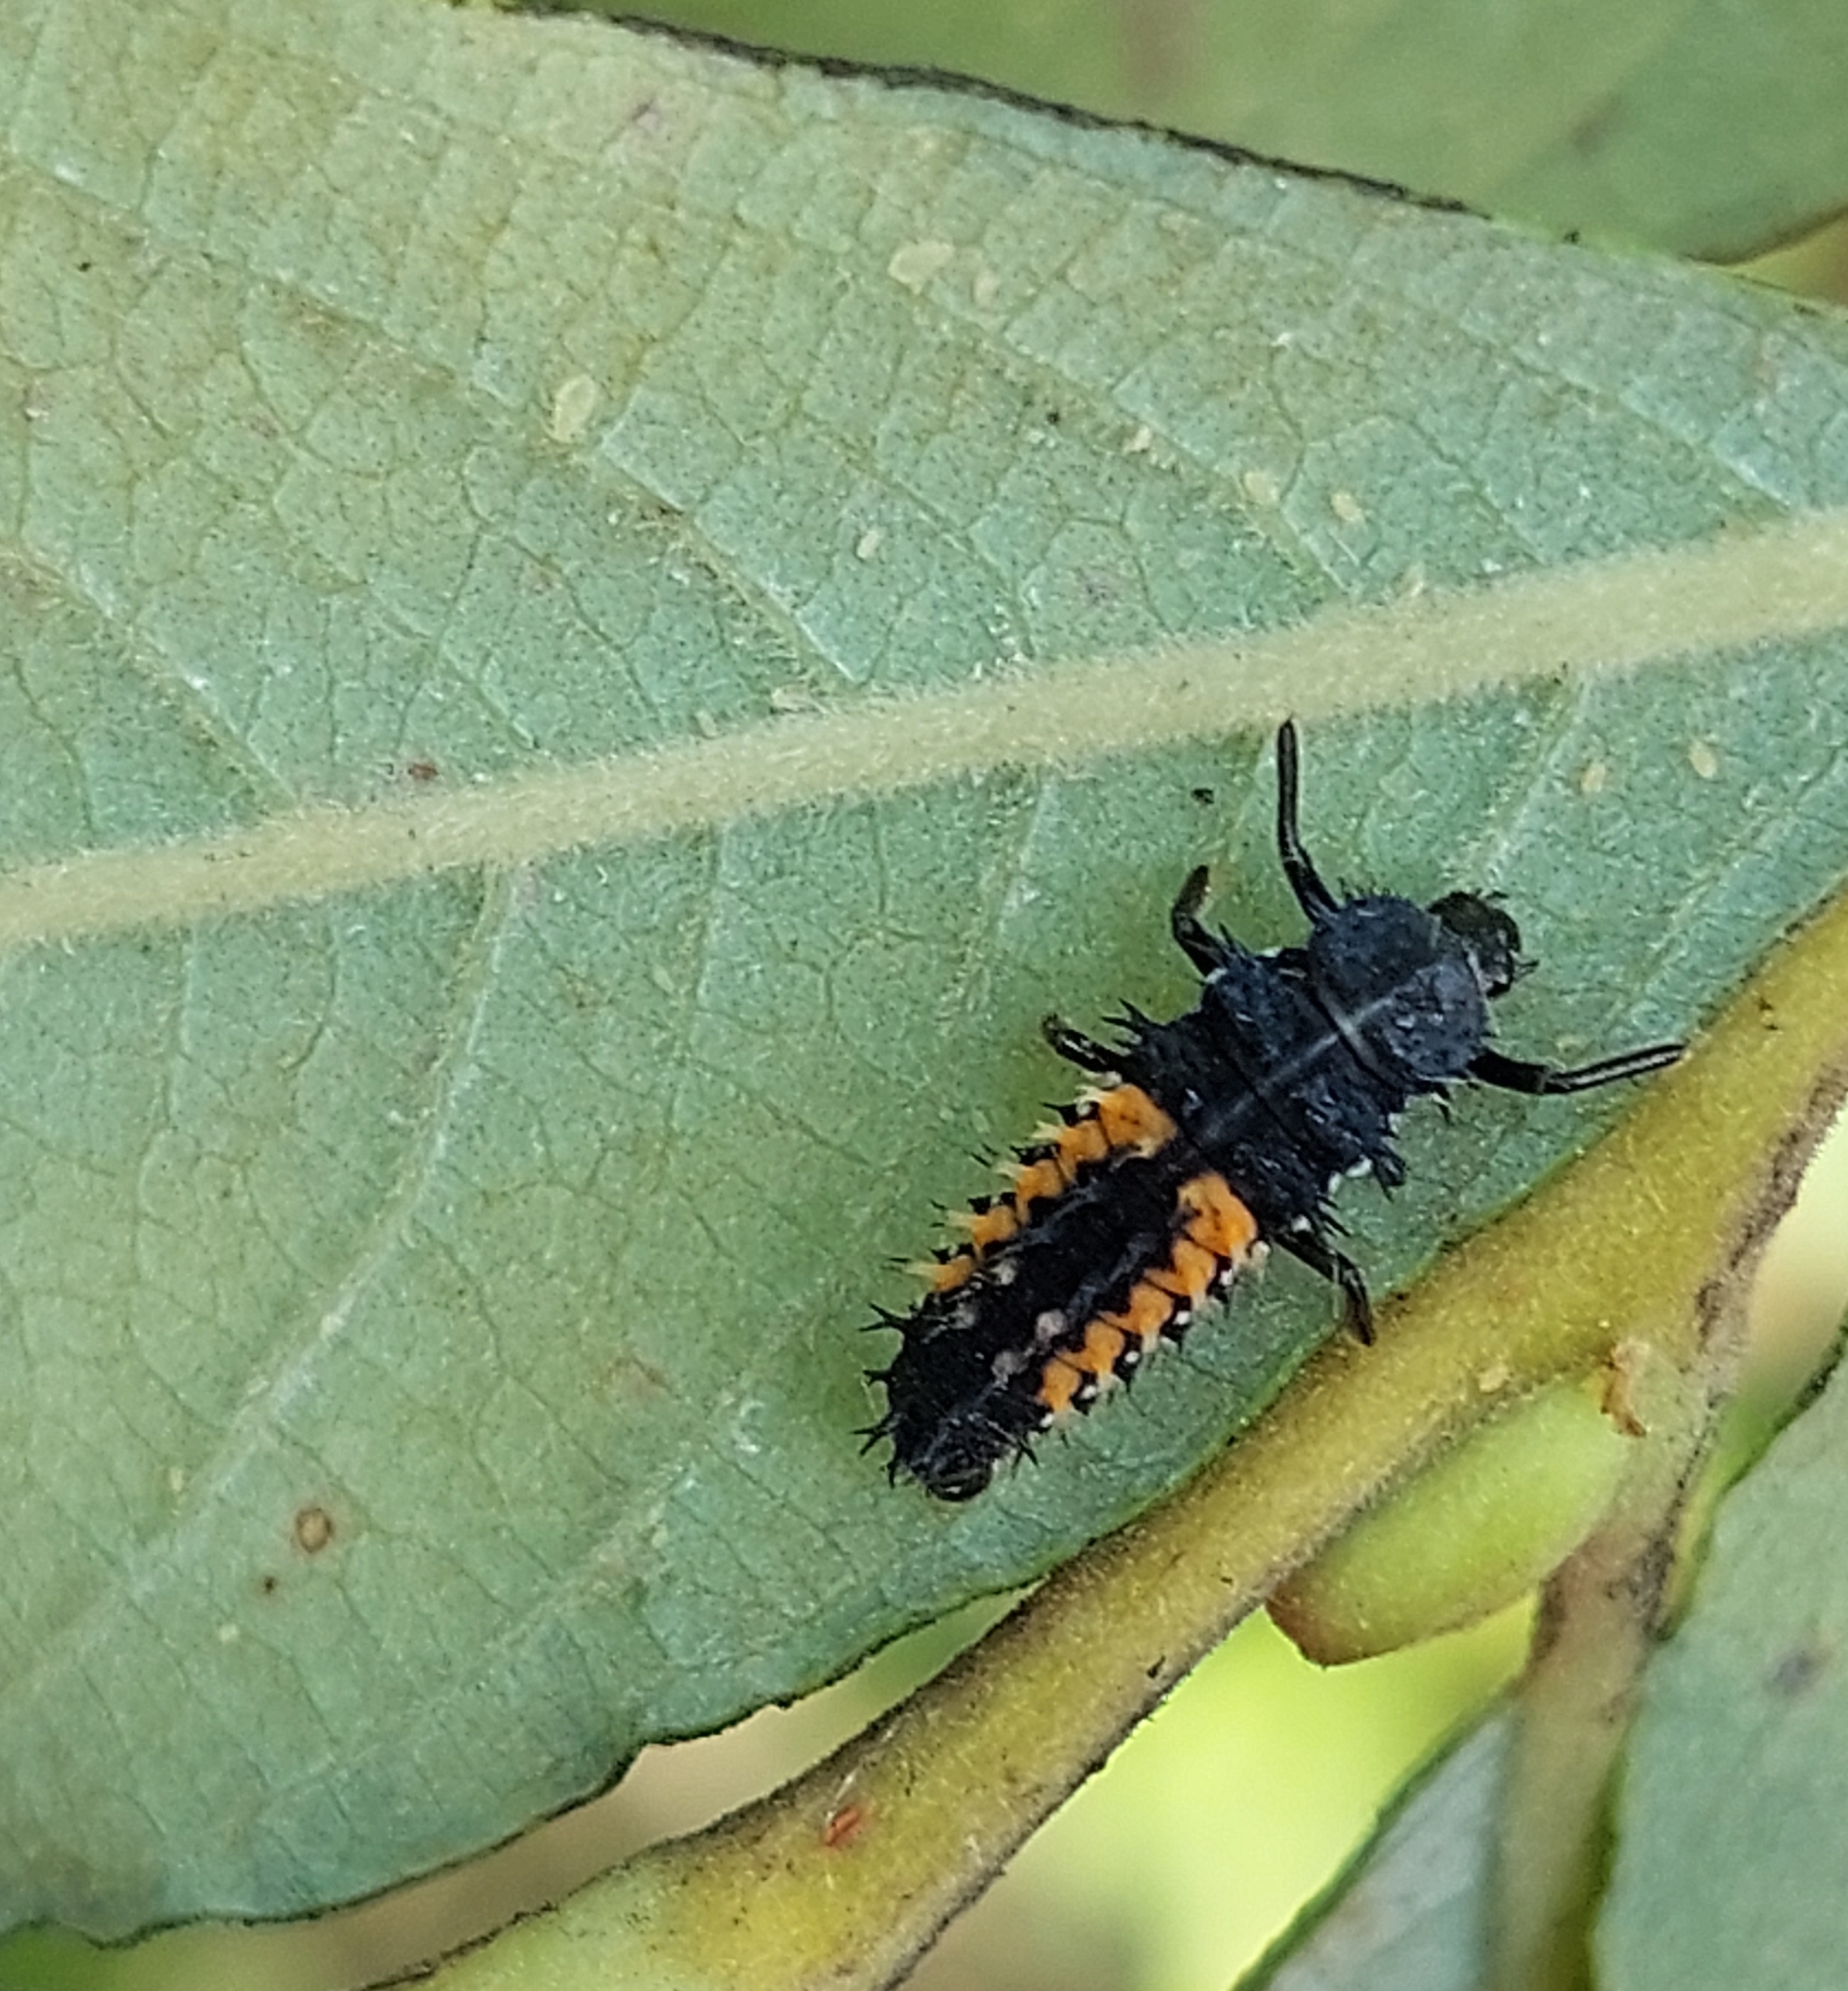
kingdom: Animalia
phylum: Arthropoda
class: Insecta
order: Coleoptera
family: Coccinellidae
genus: Harmonia
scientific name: Harmonia axyridis
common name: Harlekinmariehøne
